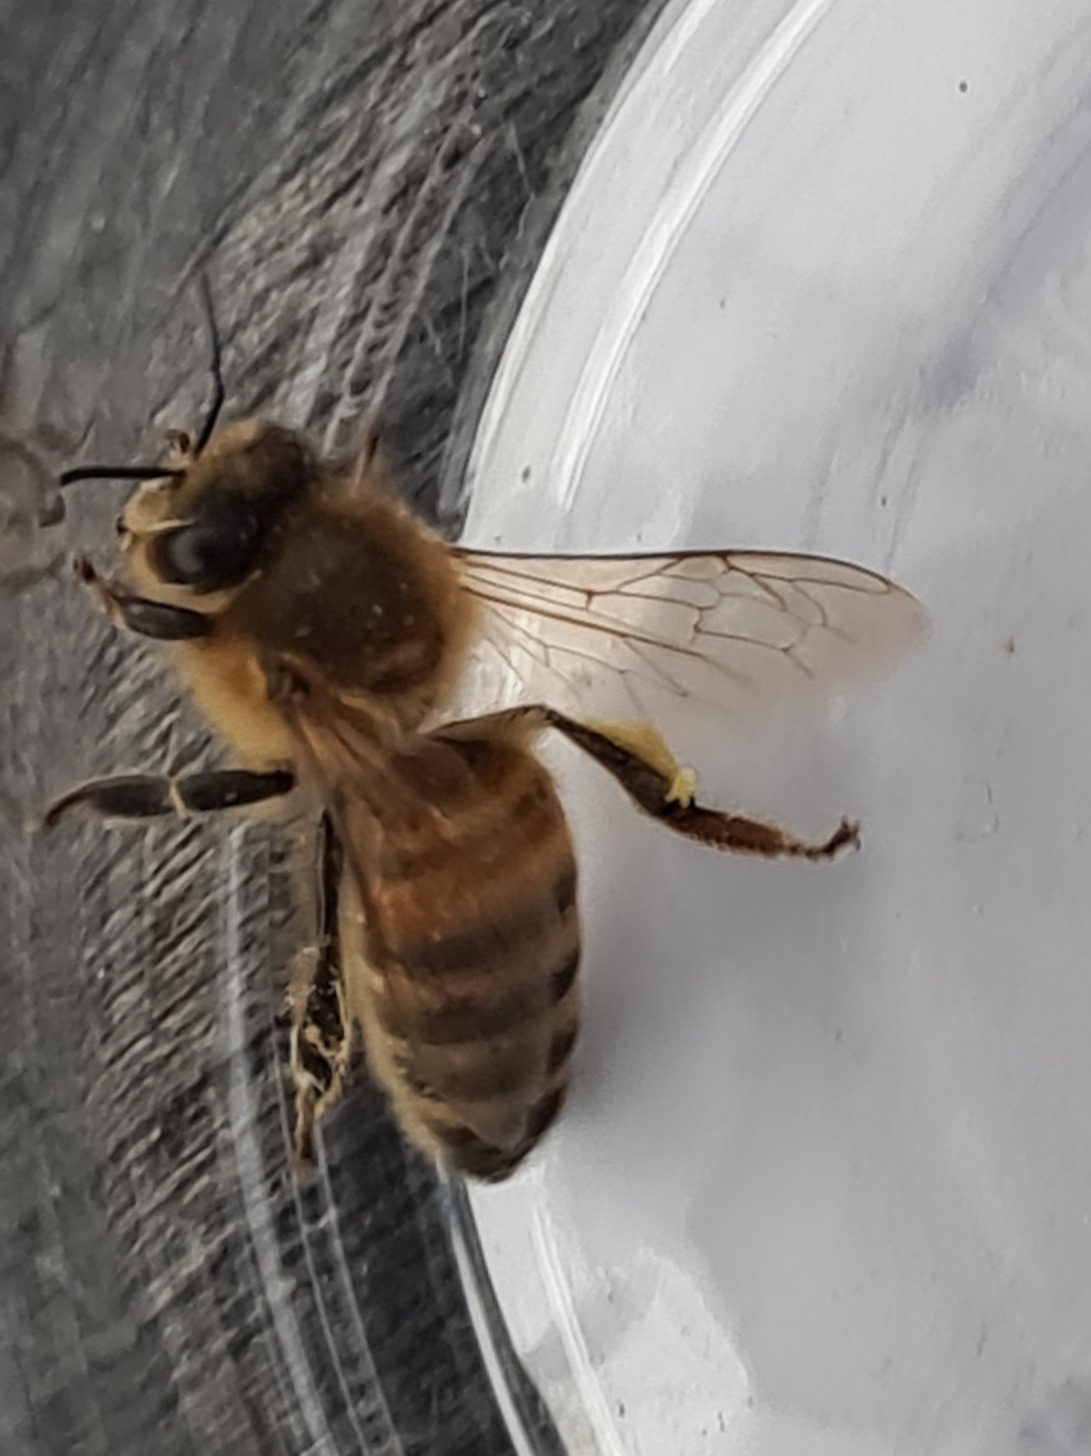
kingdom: Animalia
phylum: Arthropoda
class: Insecta
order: Hymenoptera
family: Apidae
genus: Apis
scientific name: Apis mellifera
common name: Honningbi
